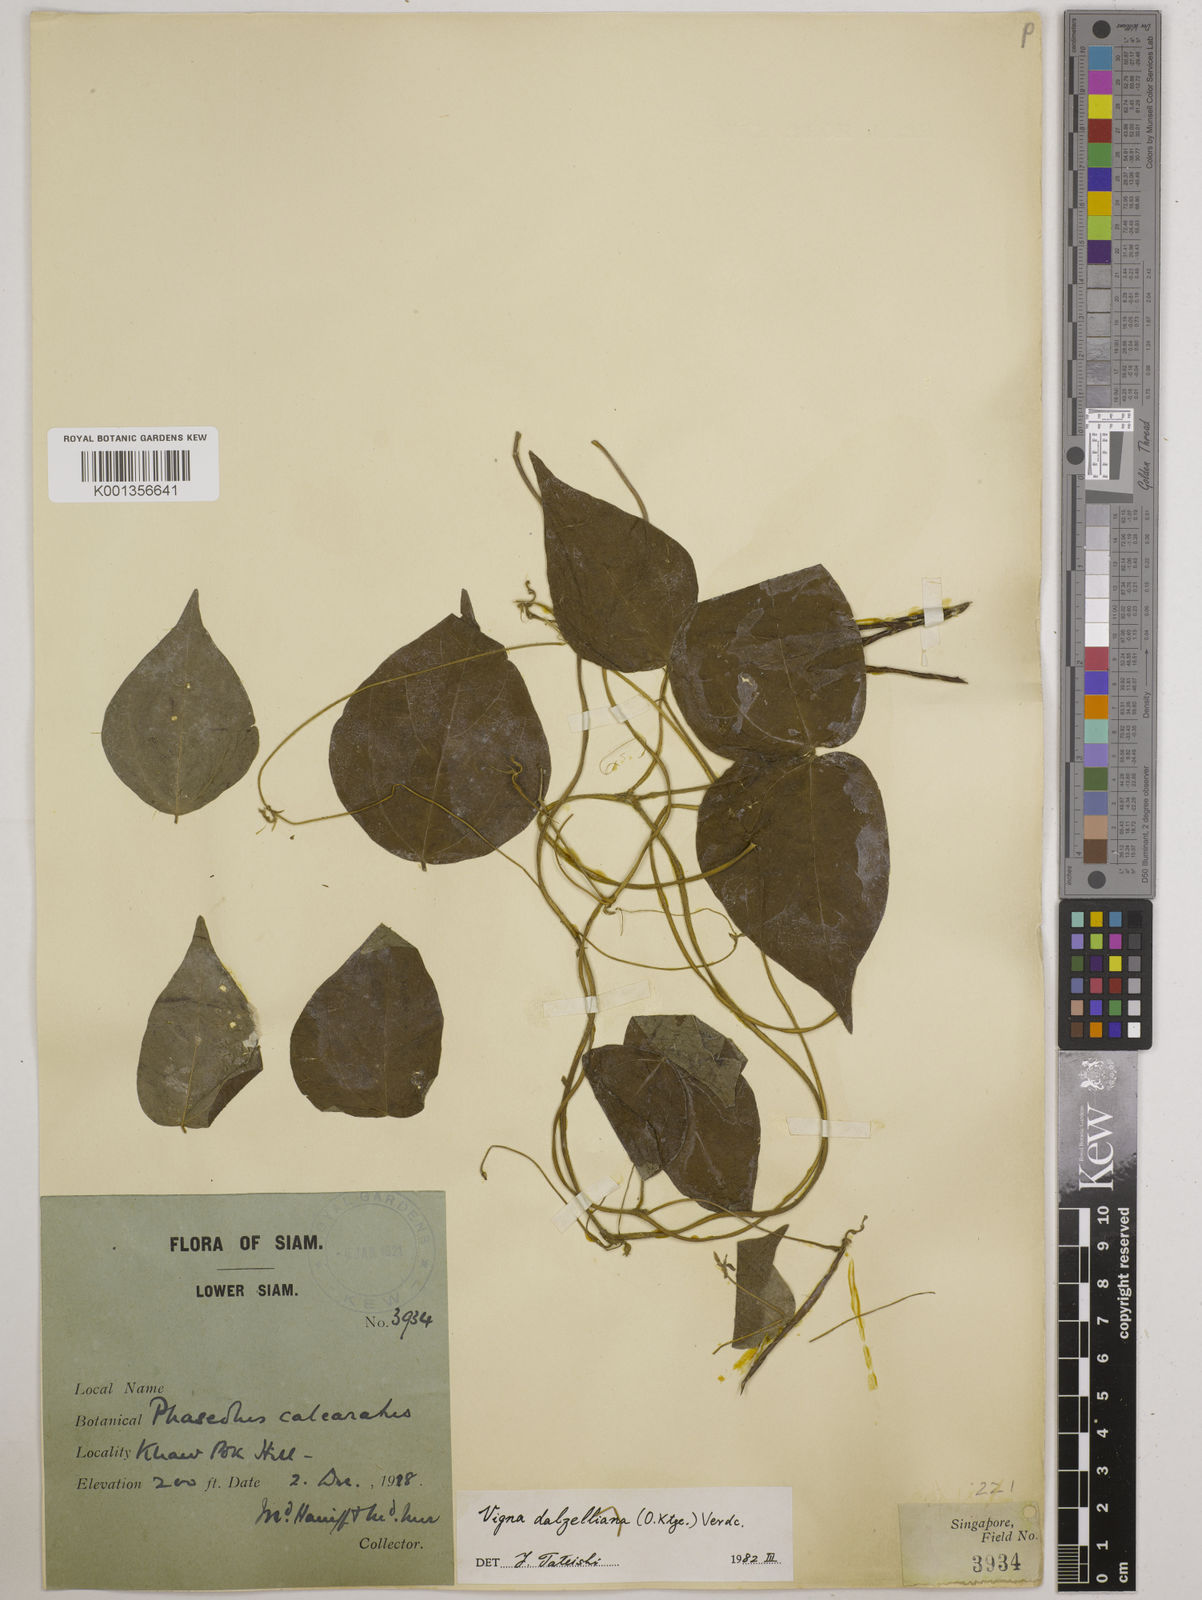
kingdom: Plantae
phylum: Tracheophyta
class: Magnoliopsida
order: Fabales
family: Fabaceae
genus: Vigna
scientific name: Vigna dalzelliana
